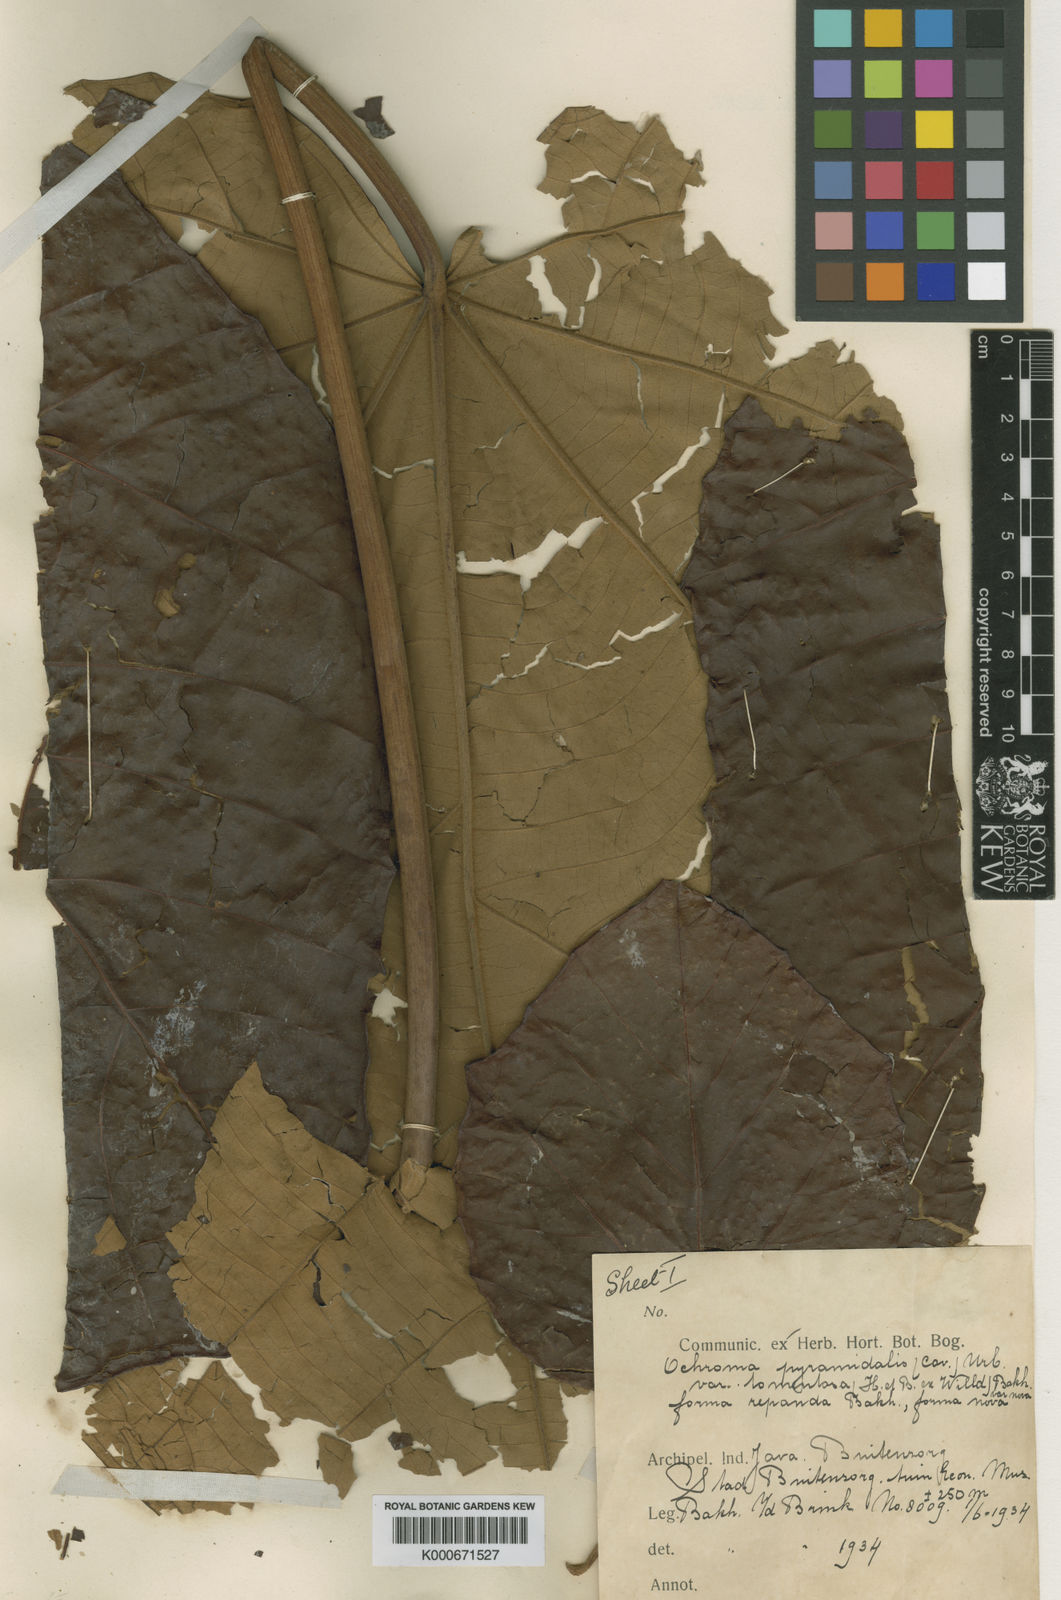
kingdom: Plantae
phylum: Tracheophyta
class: Magnoliopsida
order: Malvales
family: Malvaceae
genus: Ochroma
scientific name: Ochroma pyramidale
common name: Balsa
